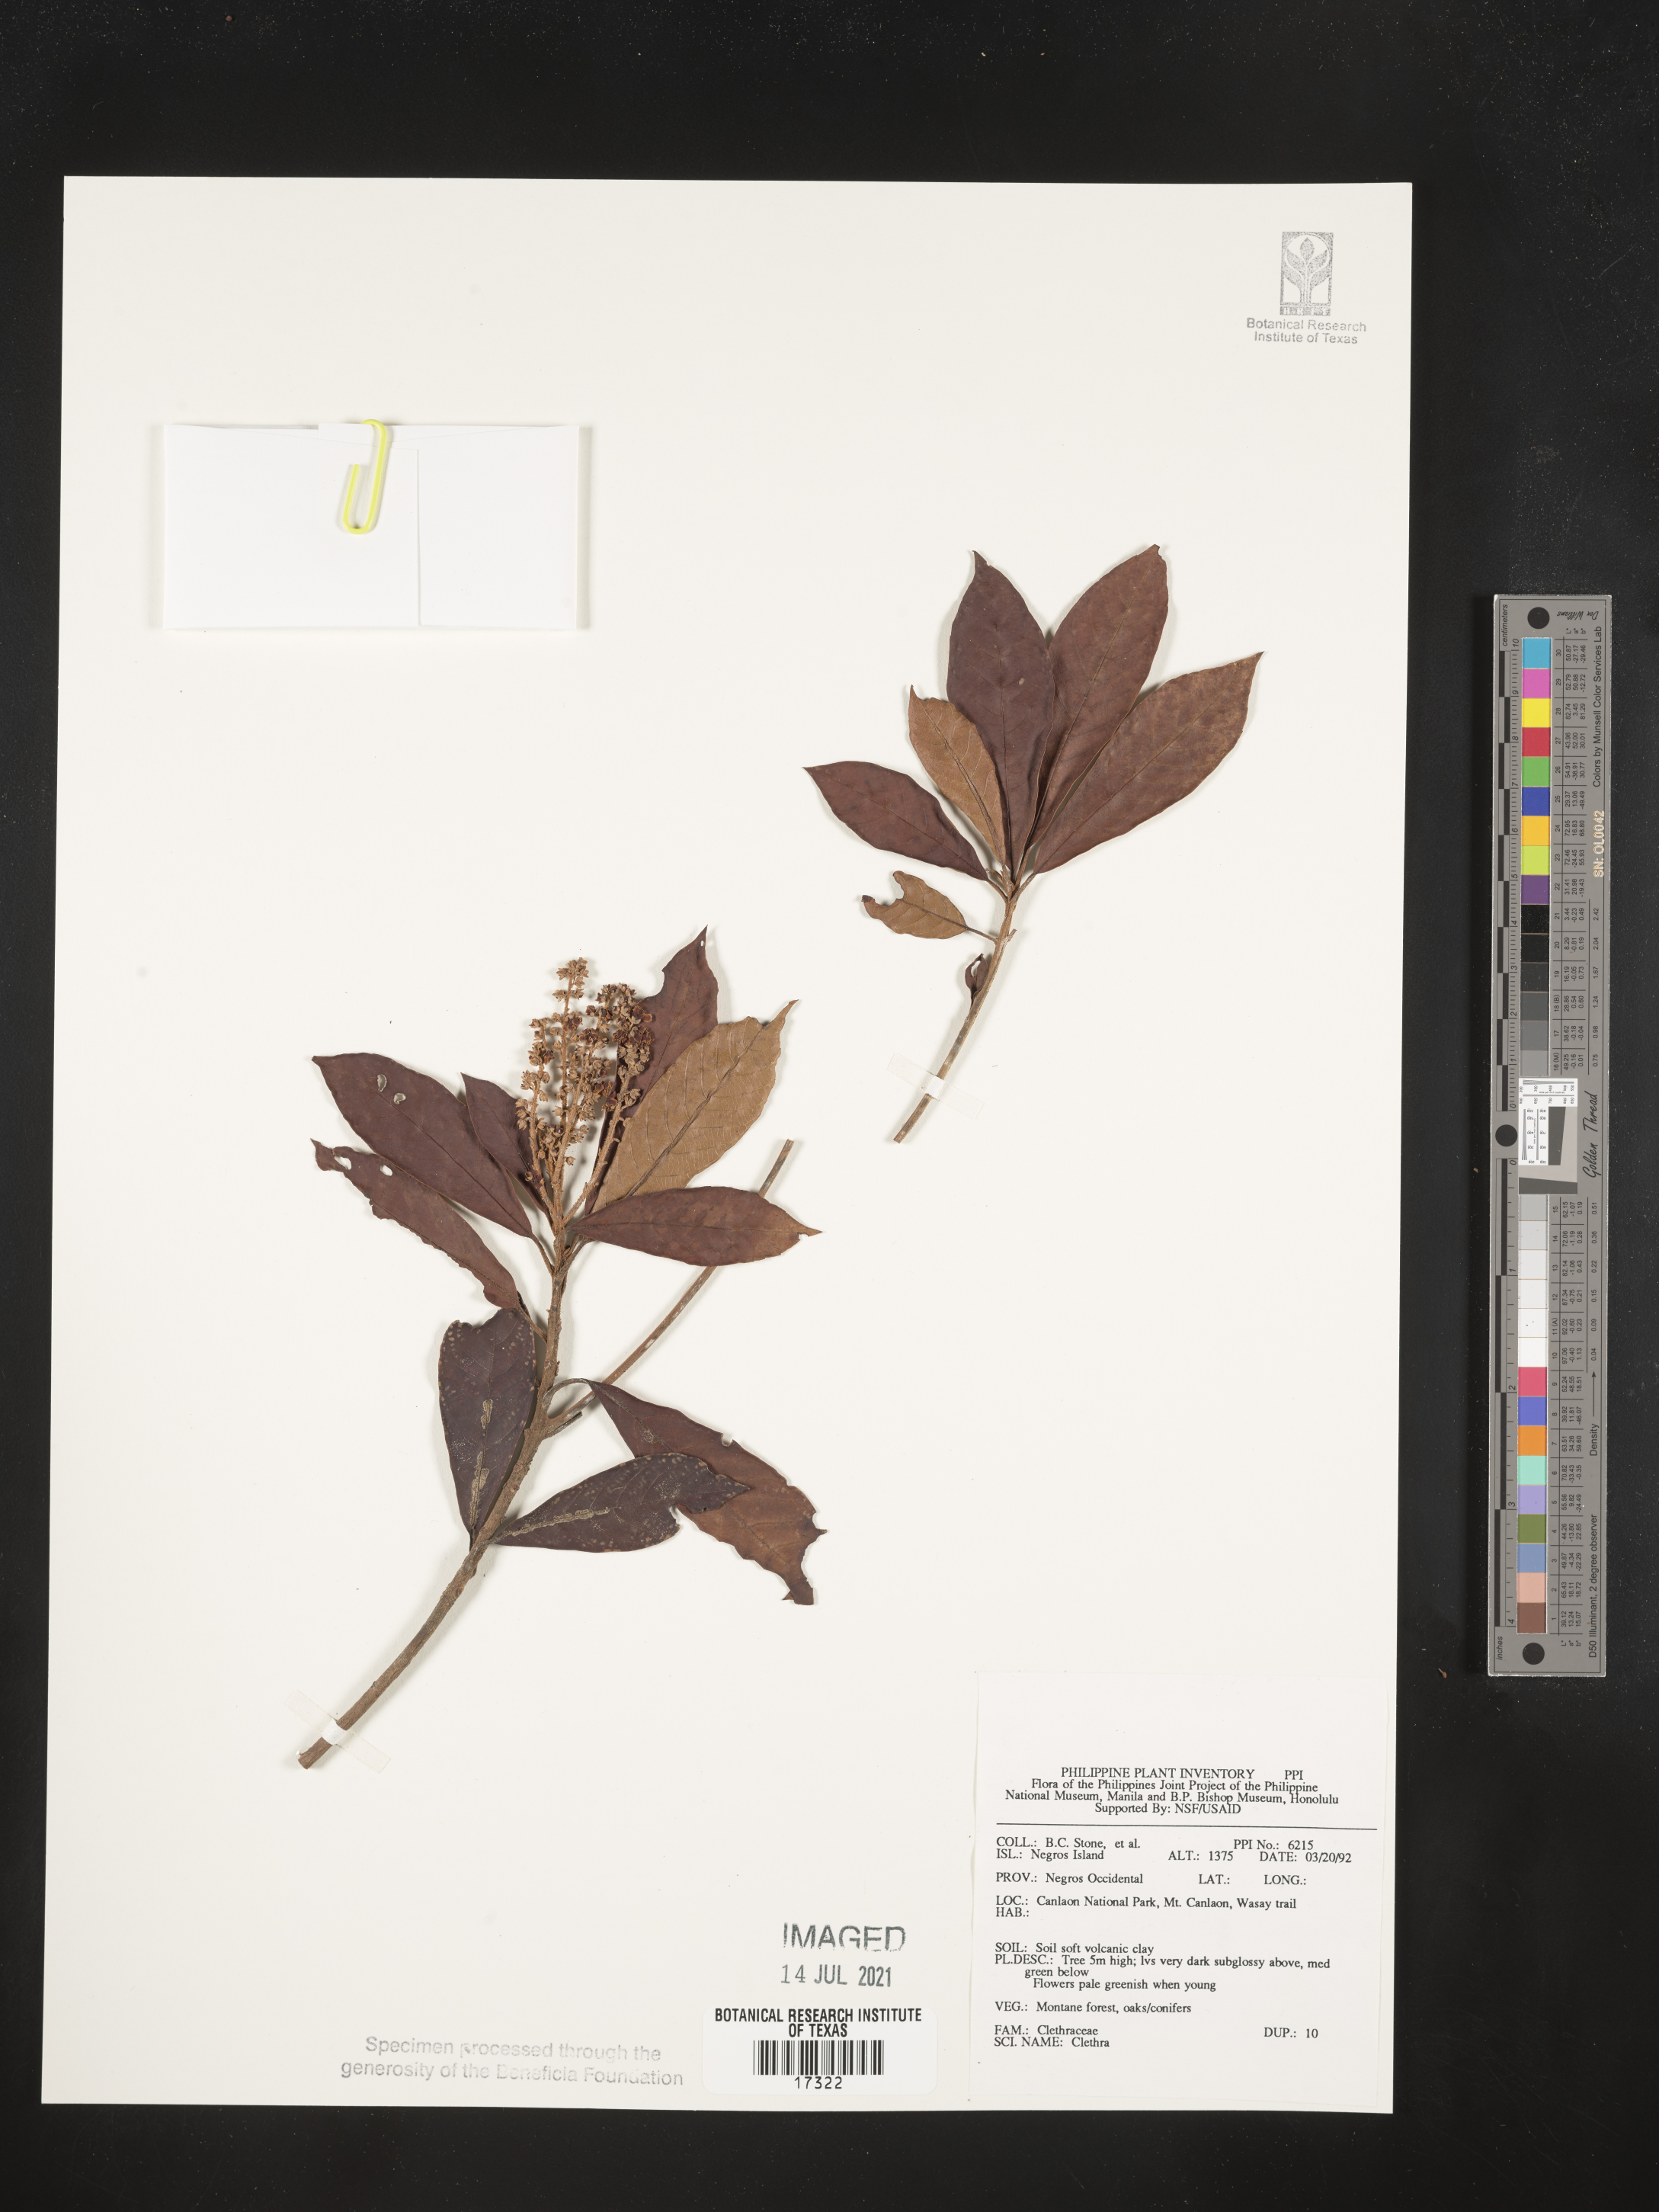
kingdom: Plantae
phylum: Tracheophyta
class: Magnoliopsida
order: Ericales
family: Clethraceae
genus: Clethra
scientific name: Clethra
